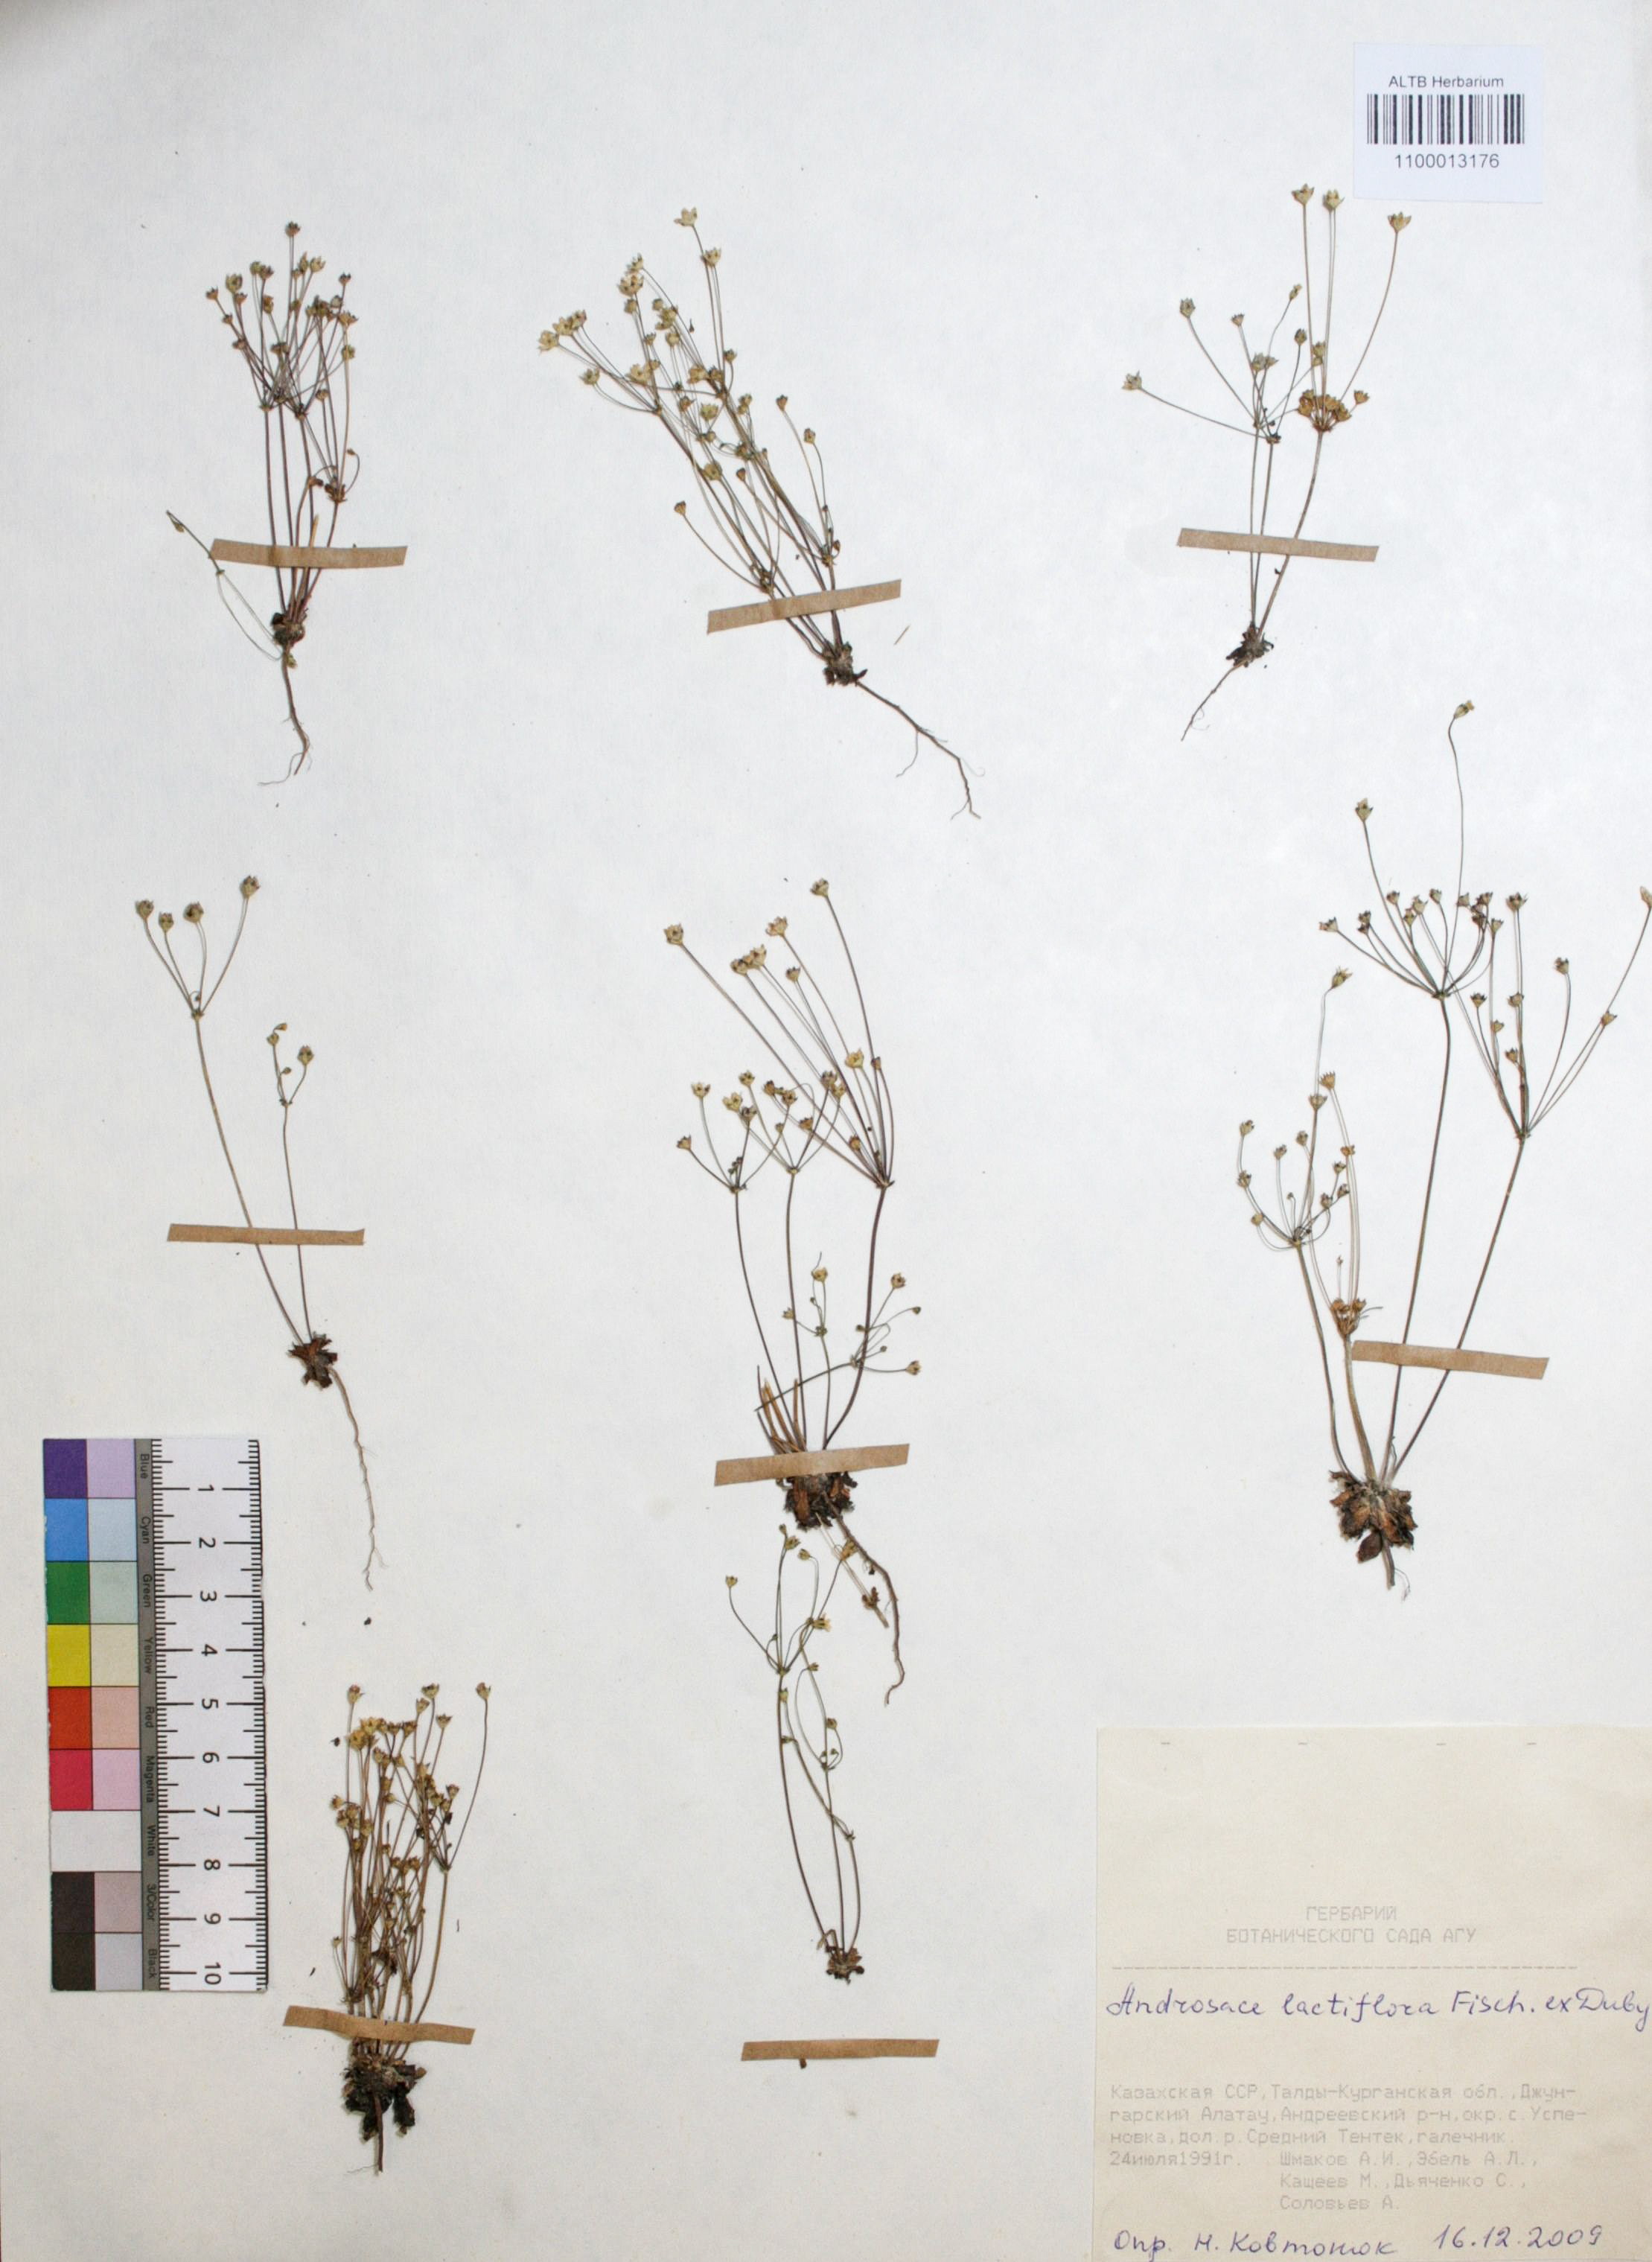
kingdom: Plantae
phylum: Tracheophyta
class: Magnoliopsida
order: Ericales
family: Primulaceae
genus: Androsace
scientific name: Androsace lactiflora
